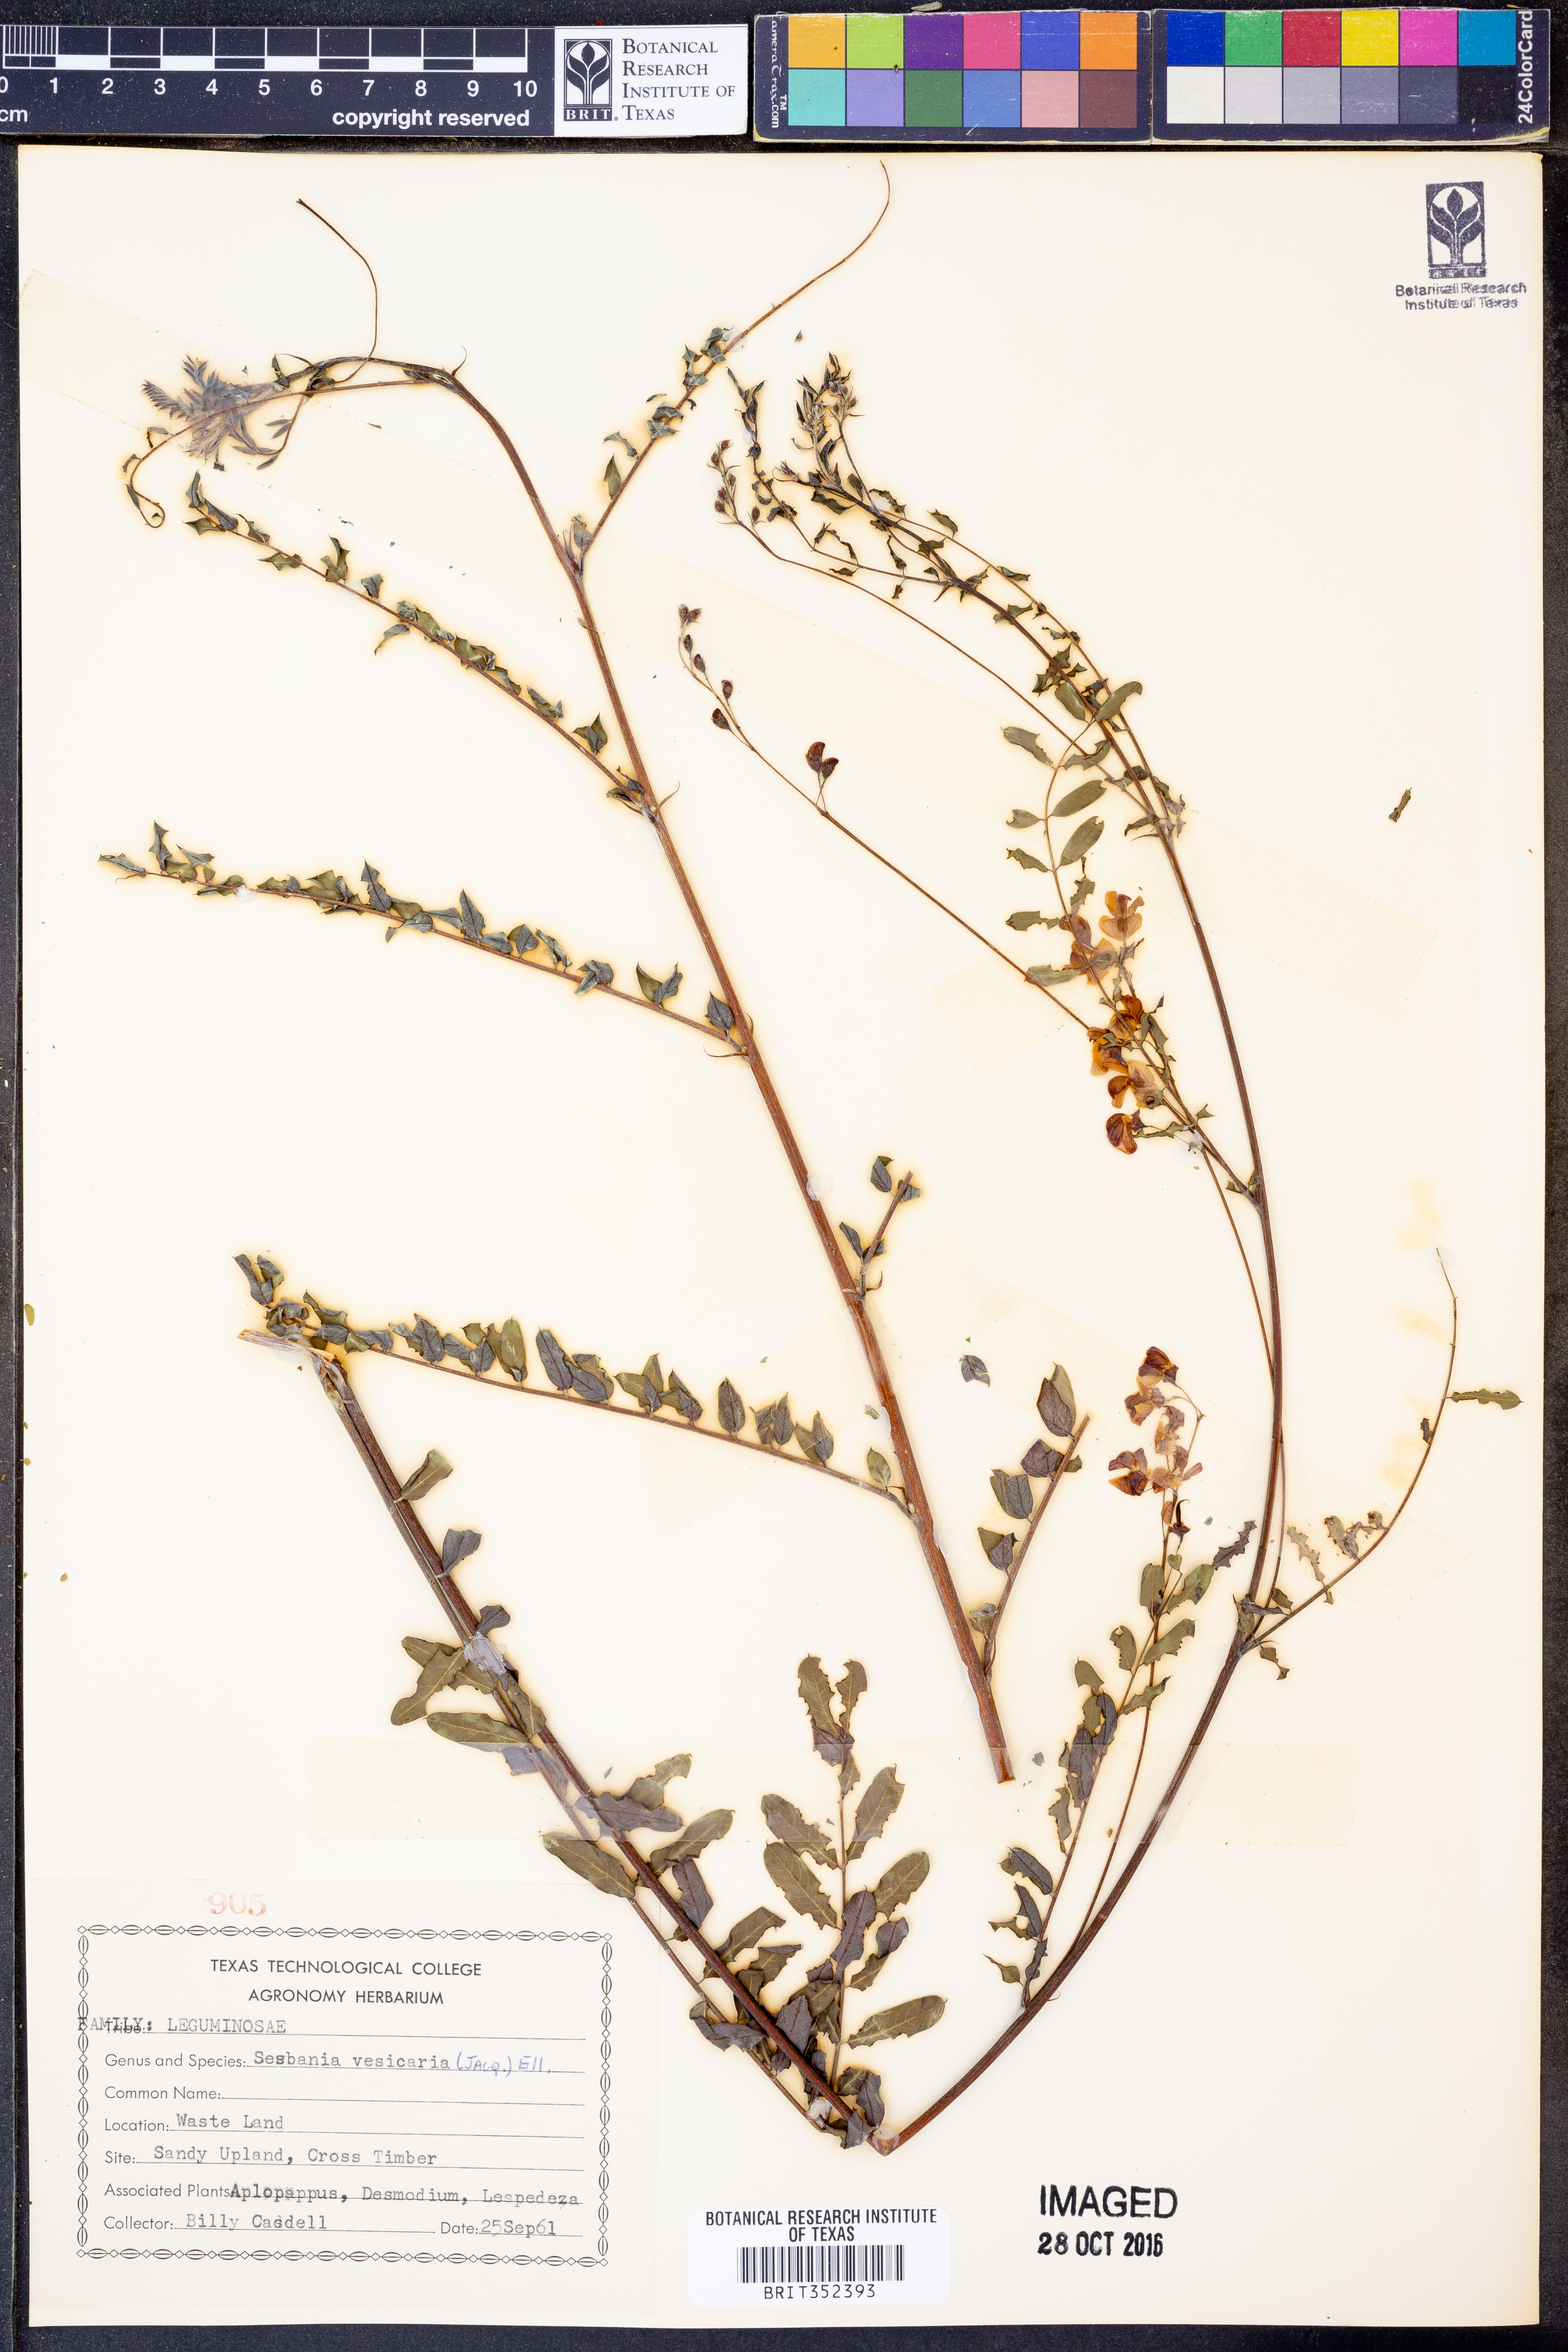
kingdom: Plantae
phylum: Tracheophyta
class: Magnoliopsida
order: Fabales
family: Fabaceae
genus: Sesbania
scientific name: Sesbania vesicaria
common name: Bagpod
